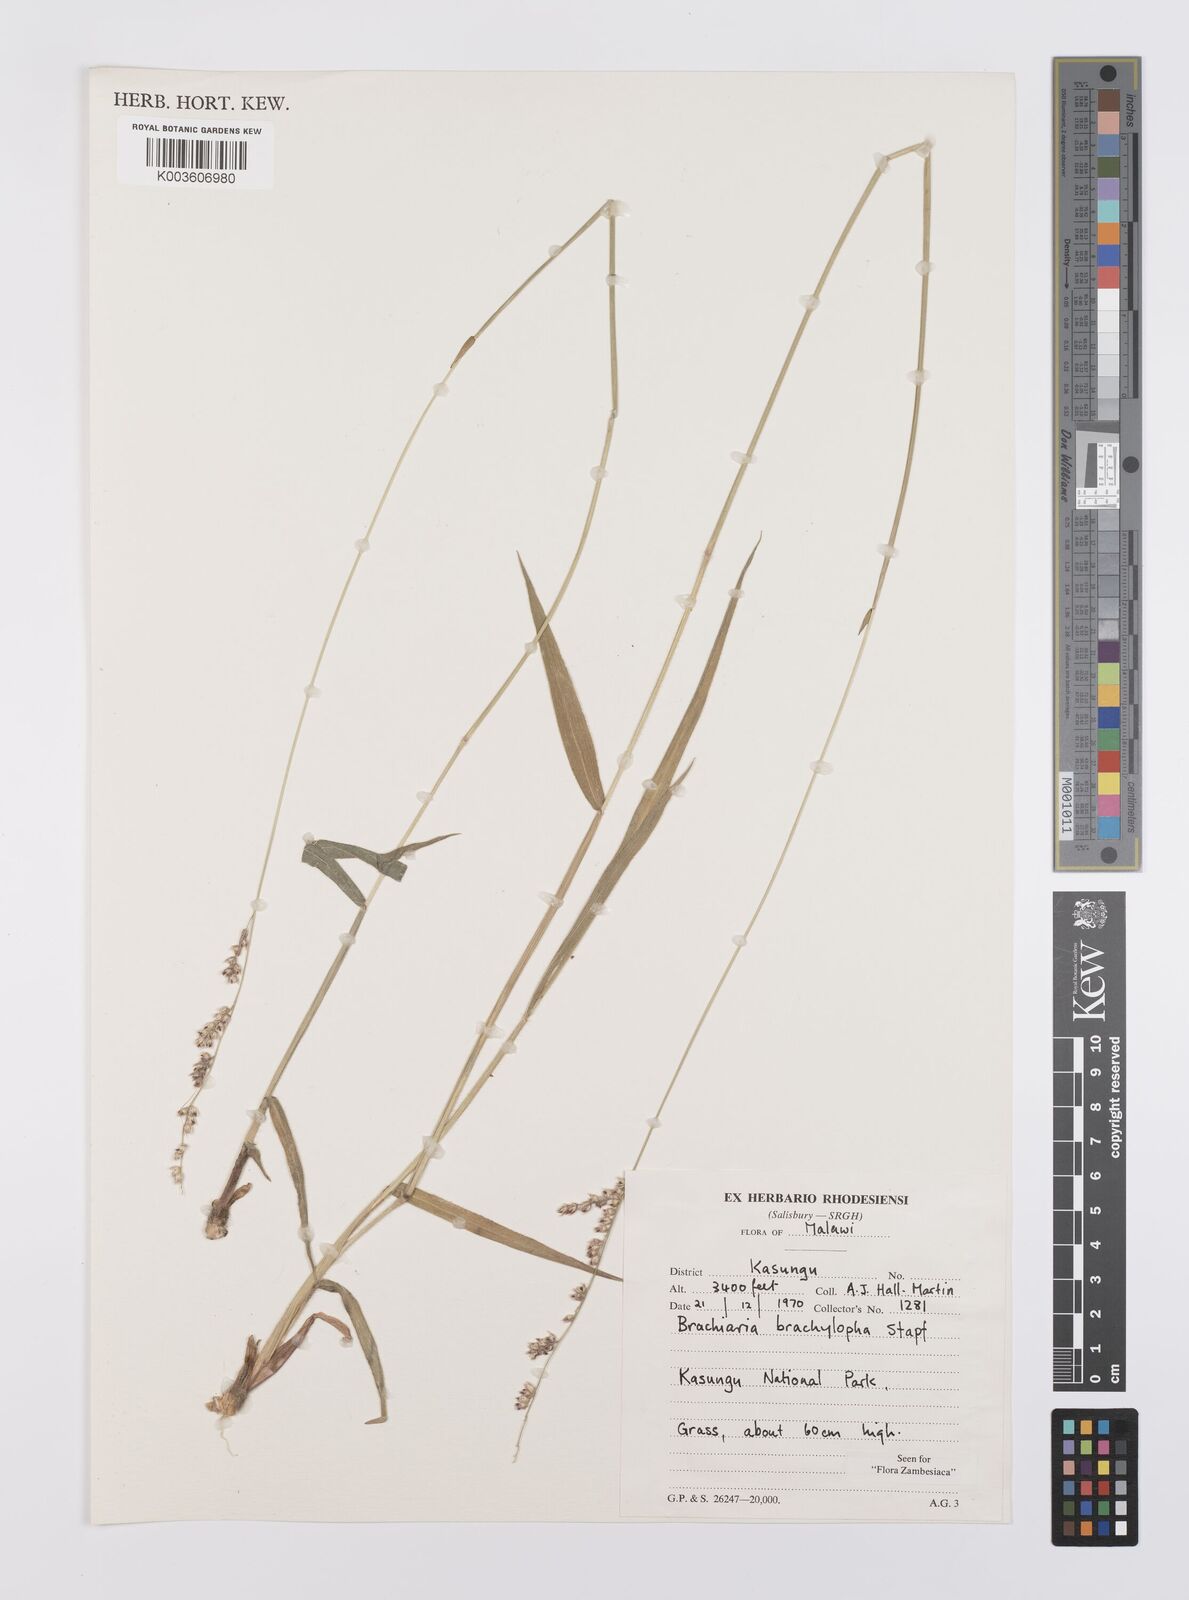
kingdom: Plantae
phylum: Tracheophyta
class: Liliopsida
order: Poales
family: Poaceae
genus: Urochloa
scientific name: Urochloa serrata
